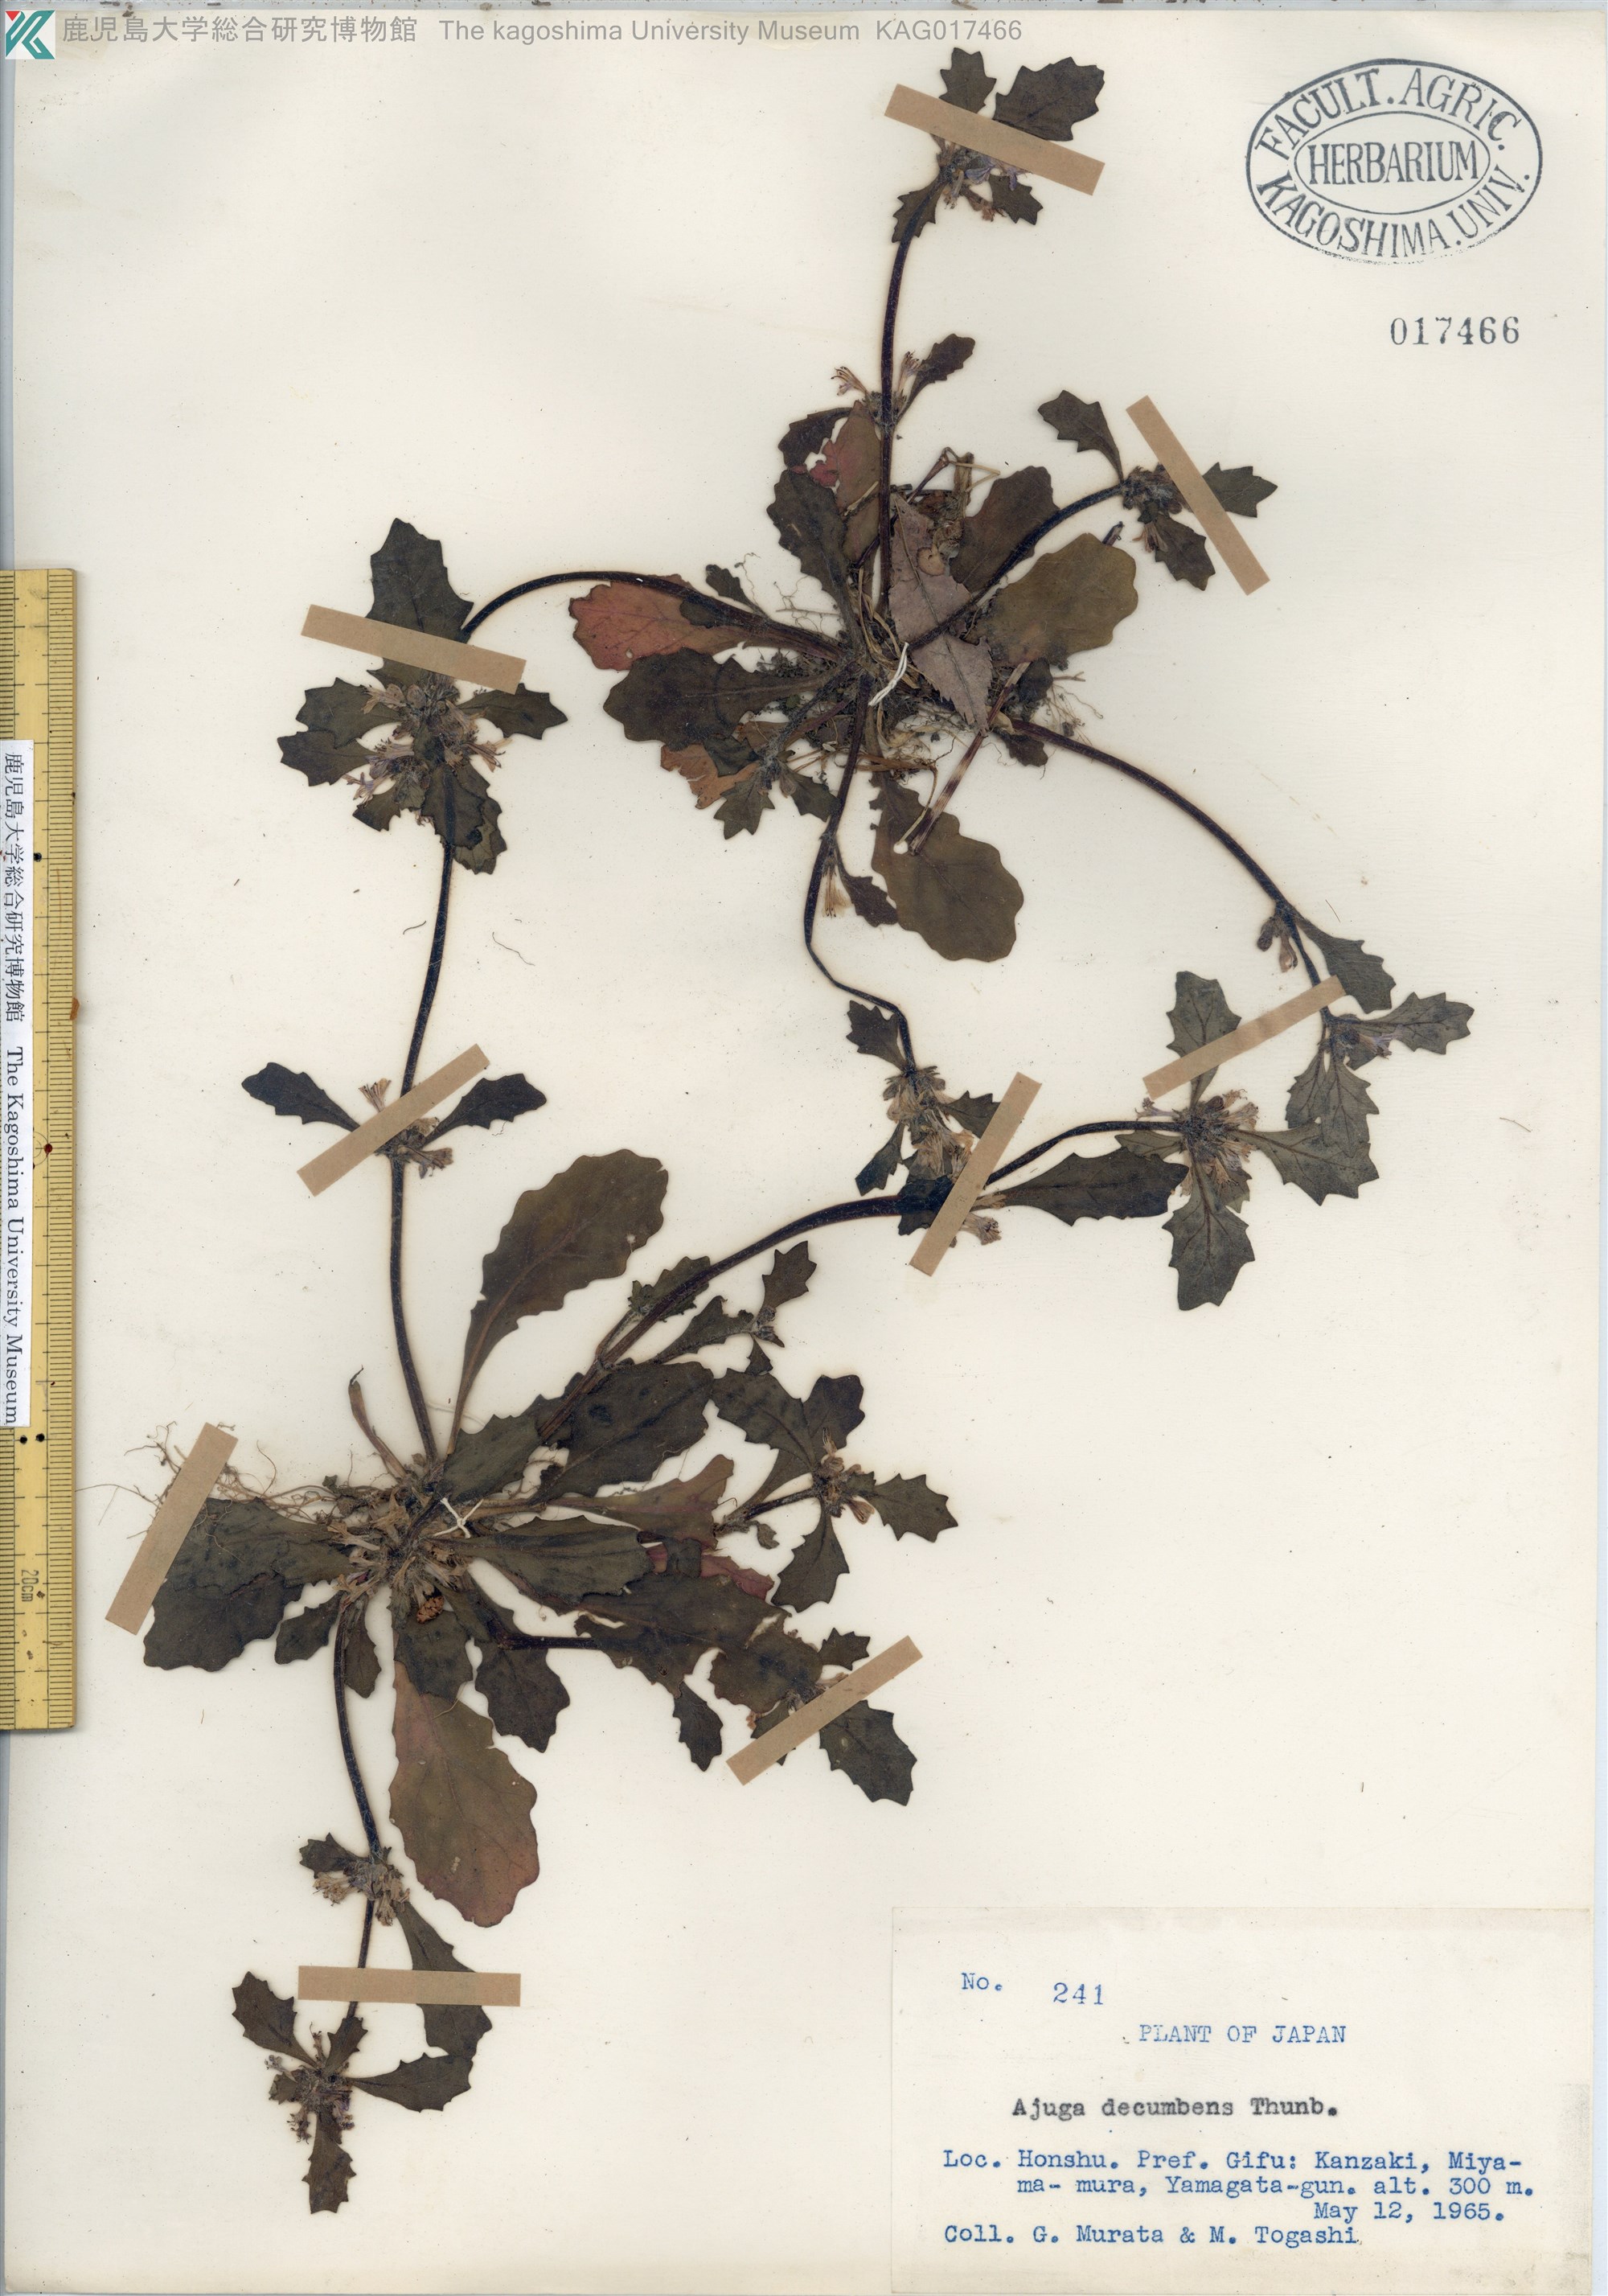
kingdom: Plantae
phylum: Tracheophyta
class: Magnoliopsida
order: Lamiales
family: Lamiaceae
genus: Ajuga
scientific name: Ajuga decumbens
